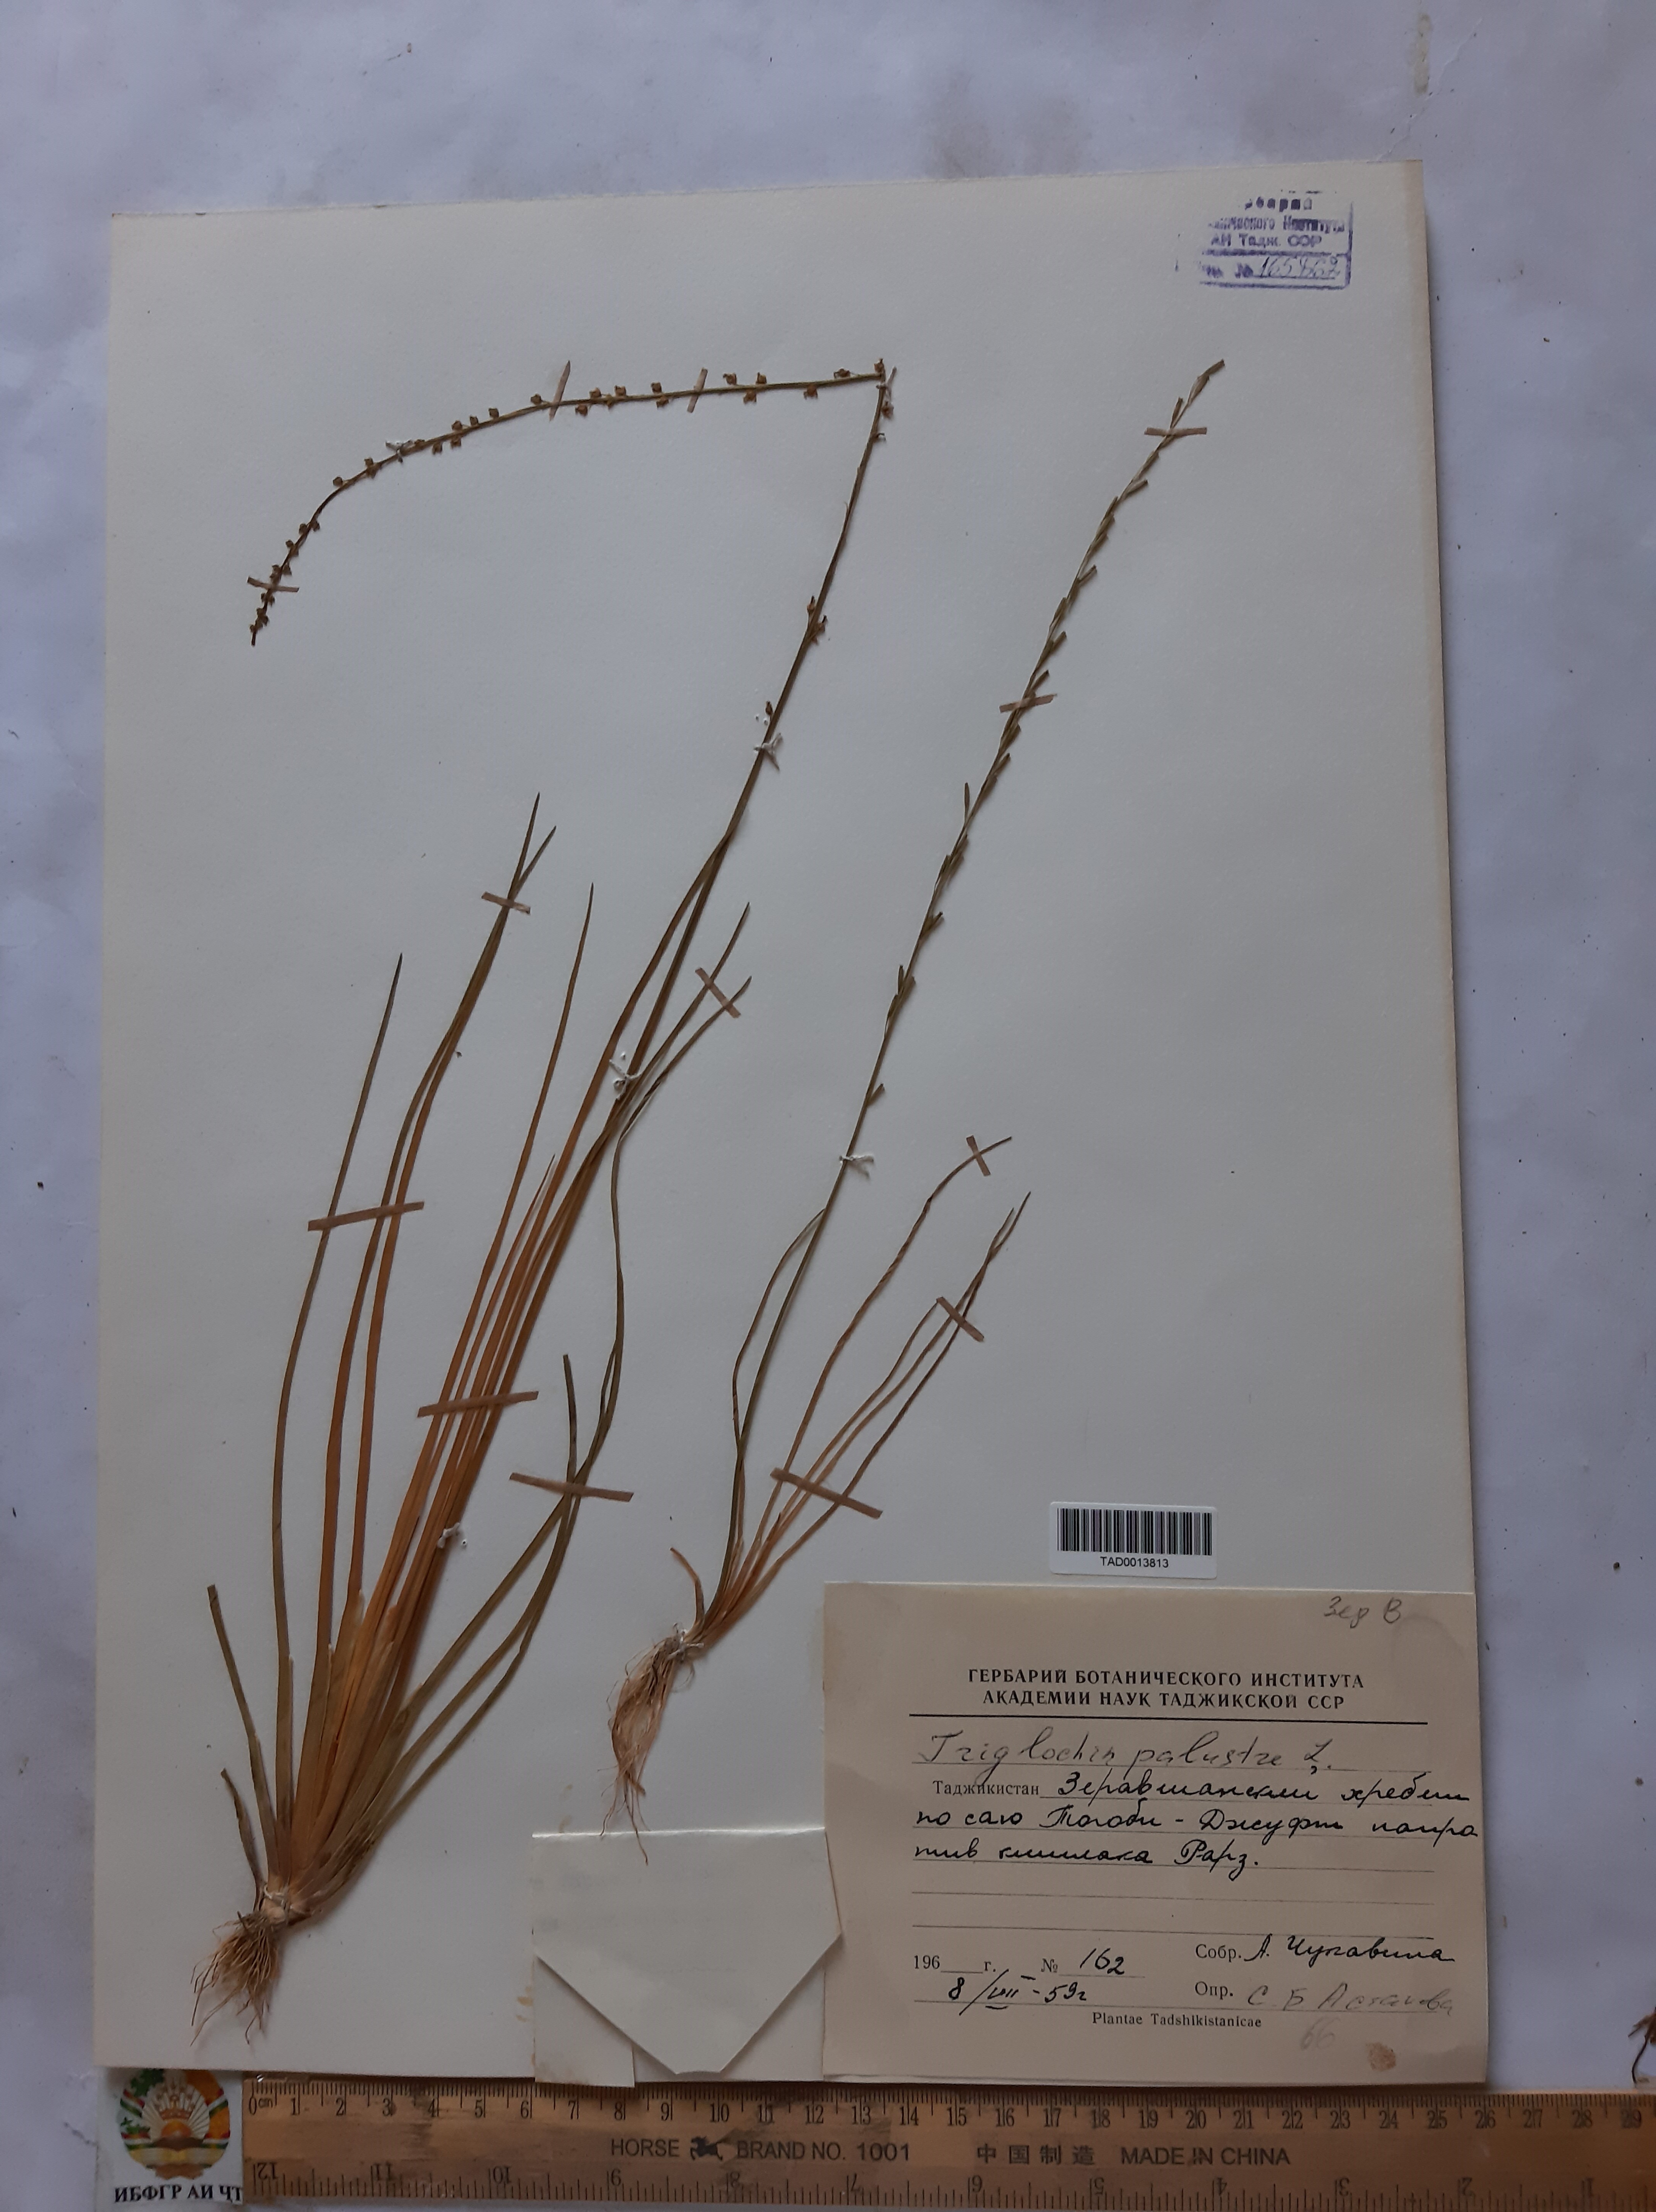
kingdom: Plantae
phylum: Tracheophyta
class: Liliopsida
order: Alismatales
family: Juncaginaceae
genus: Triglochin
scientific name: Triglochin palustris
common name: Marsh arrowgrass
